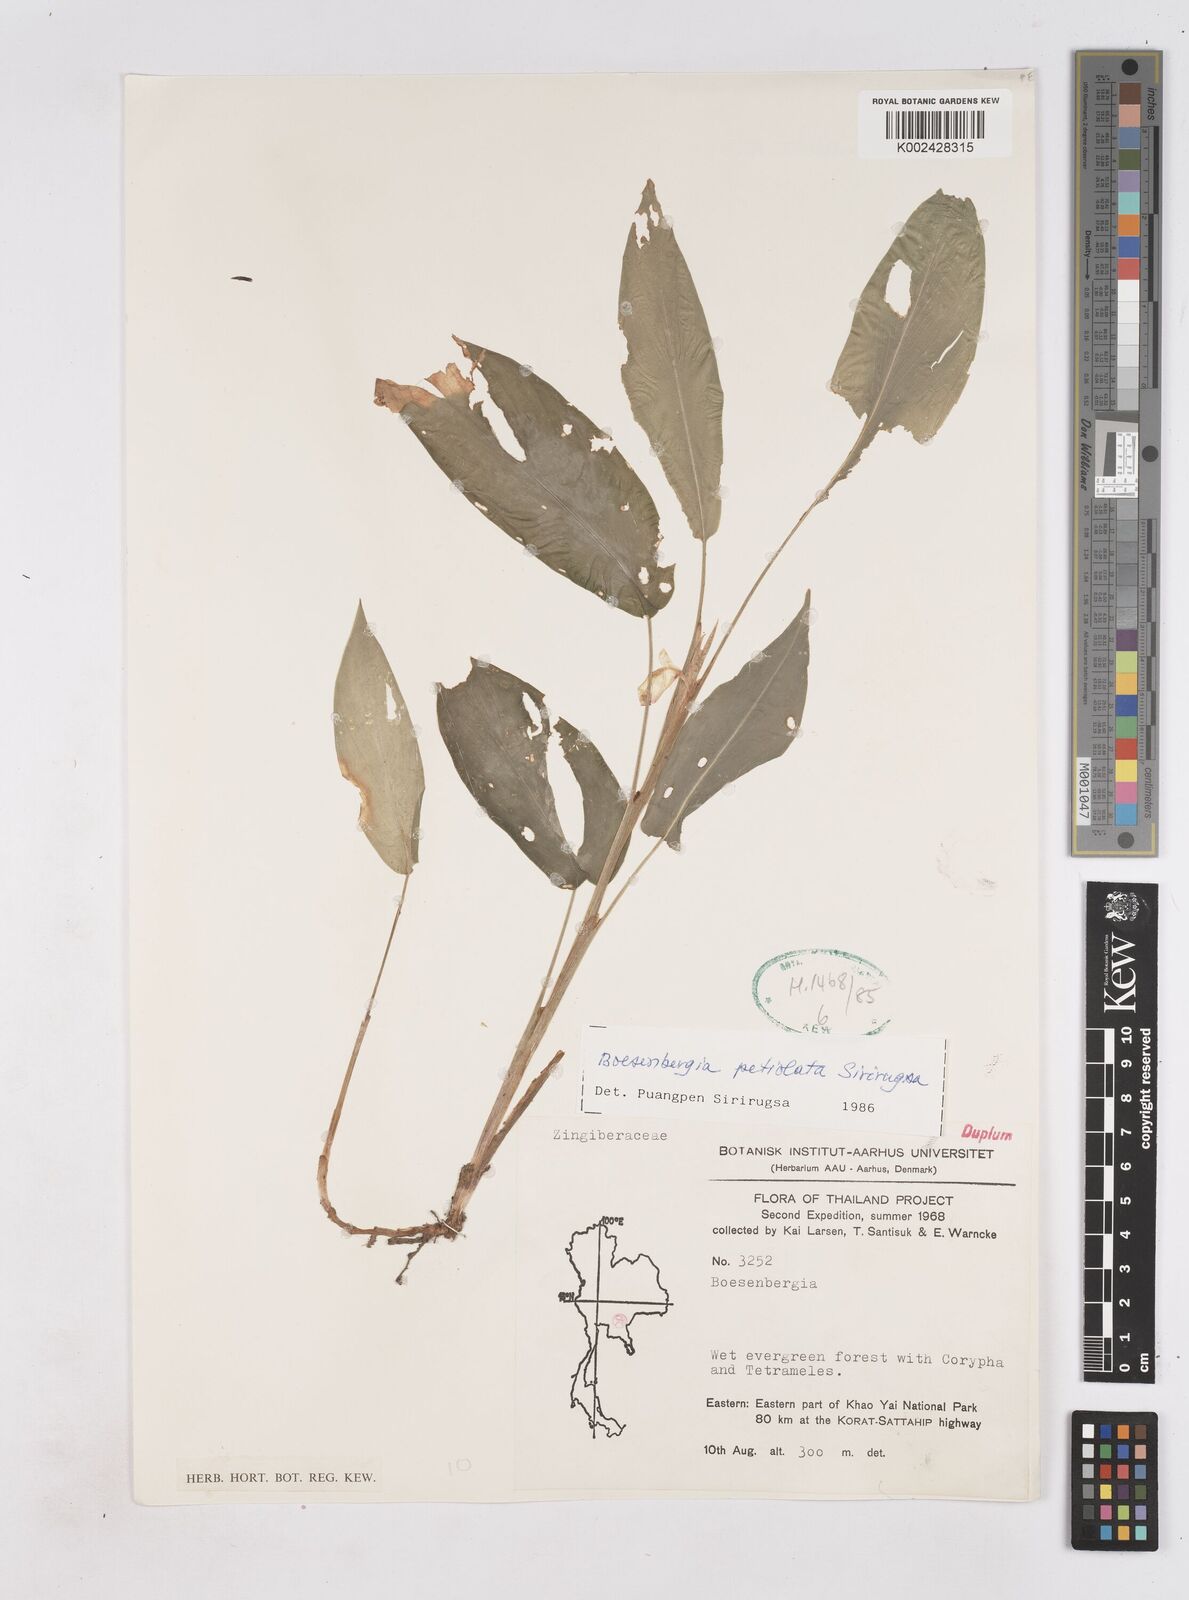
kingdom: Plantae
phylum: Tracheophyta
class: Liliopsida
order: Zingiberales
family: Zingiberaceae
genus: Boesenbergia
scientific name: Boesenbergia petiolata
